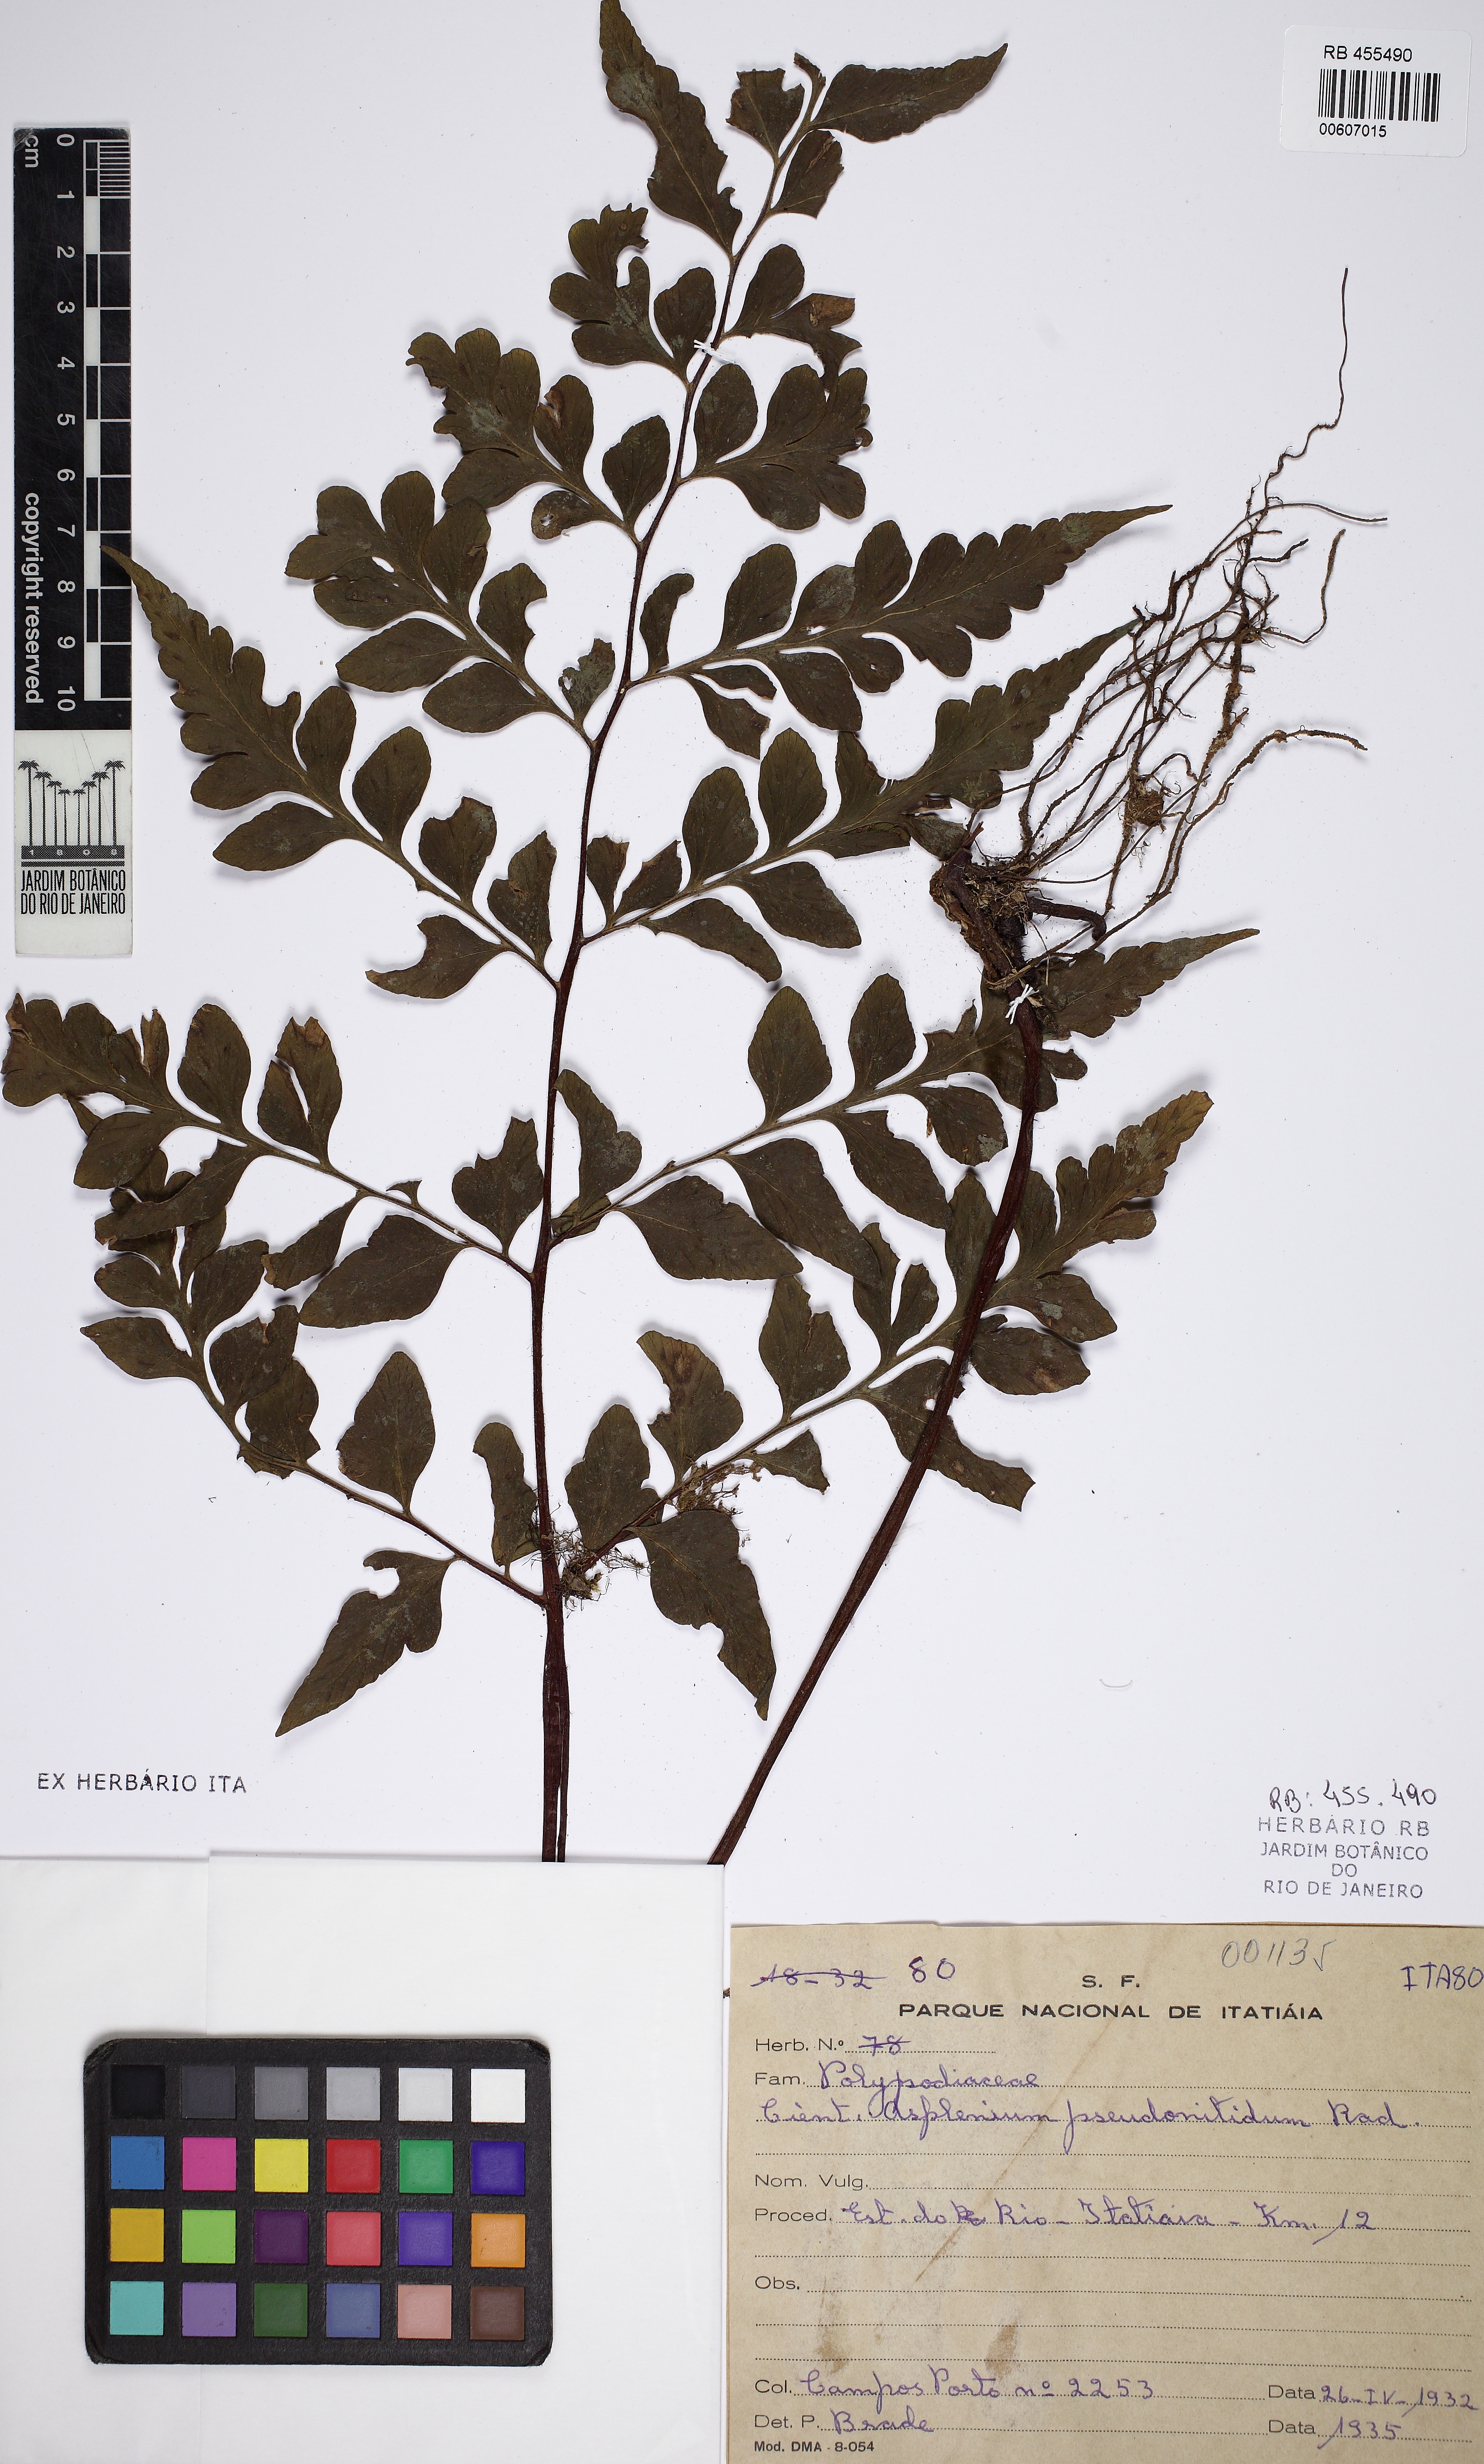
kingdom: Plantae
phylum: Tracheophyta
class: Polypodiopsida
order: Polypodiales
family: Aspleniaceae
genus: Asplenium
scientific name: Asplenium pseudonitidum
